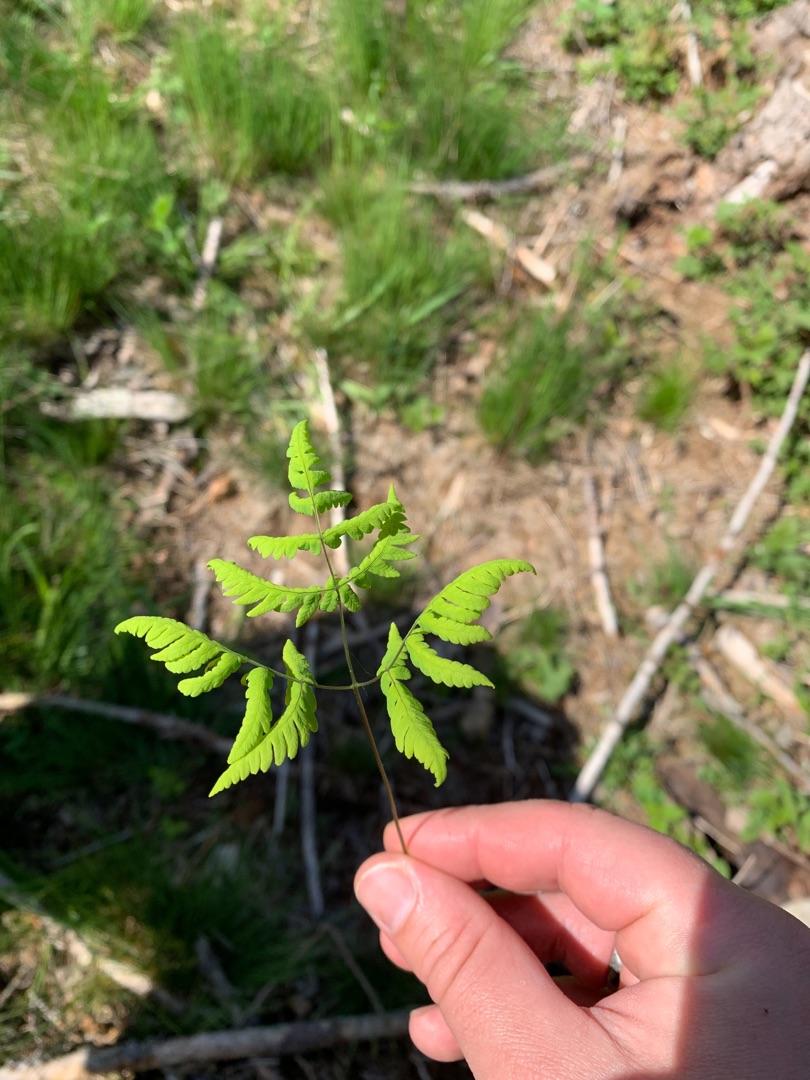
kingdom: Plantae
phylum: Tracheophyta
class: Polypodiopsida
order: Polypodiales
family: Cystopteridaceae
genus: Gymnocarpium
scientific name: Gymnocarpium dryopteris
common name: Tredelt egebregne
